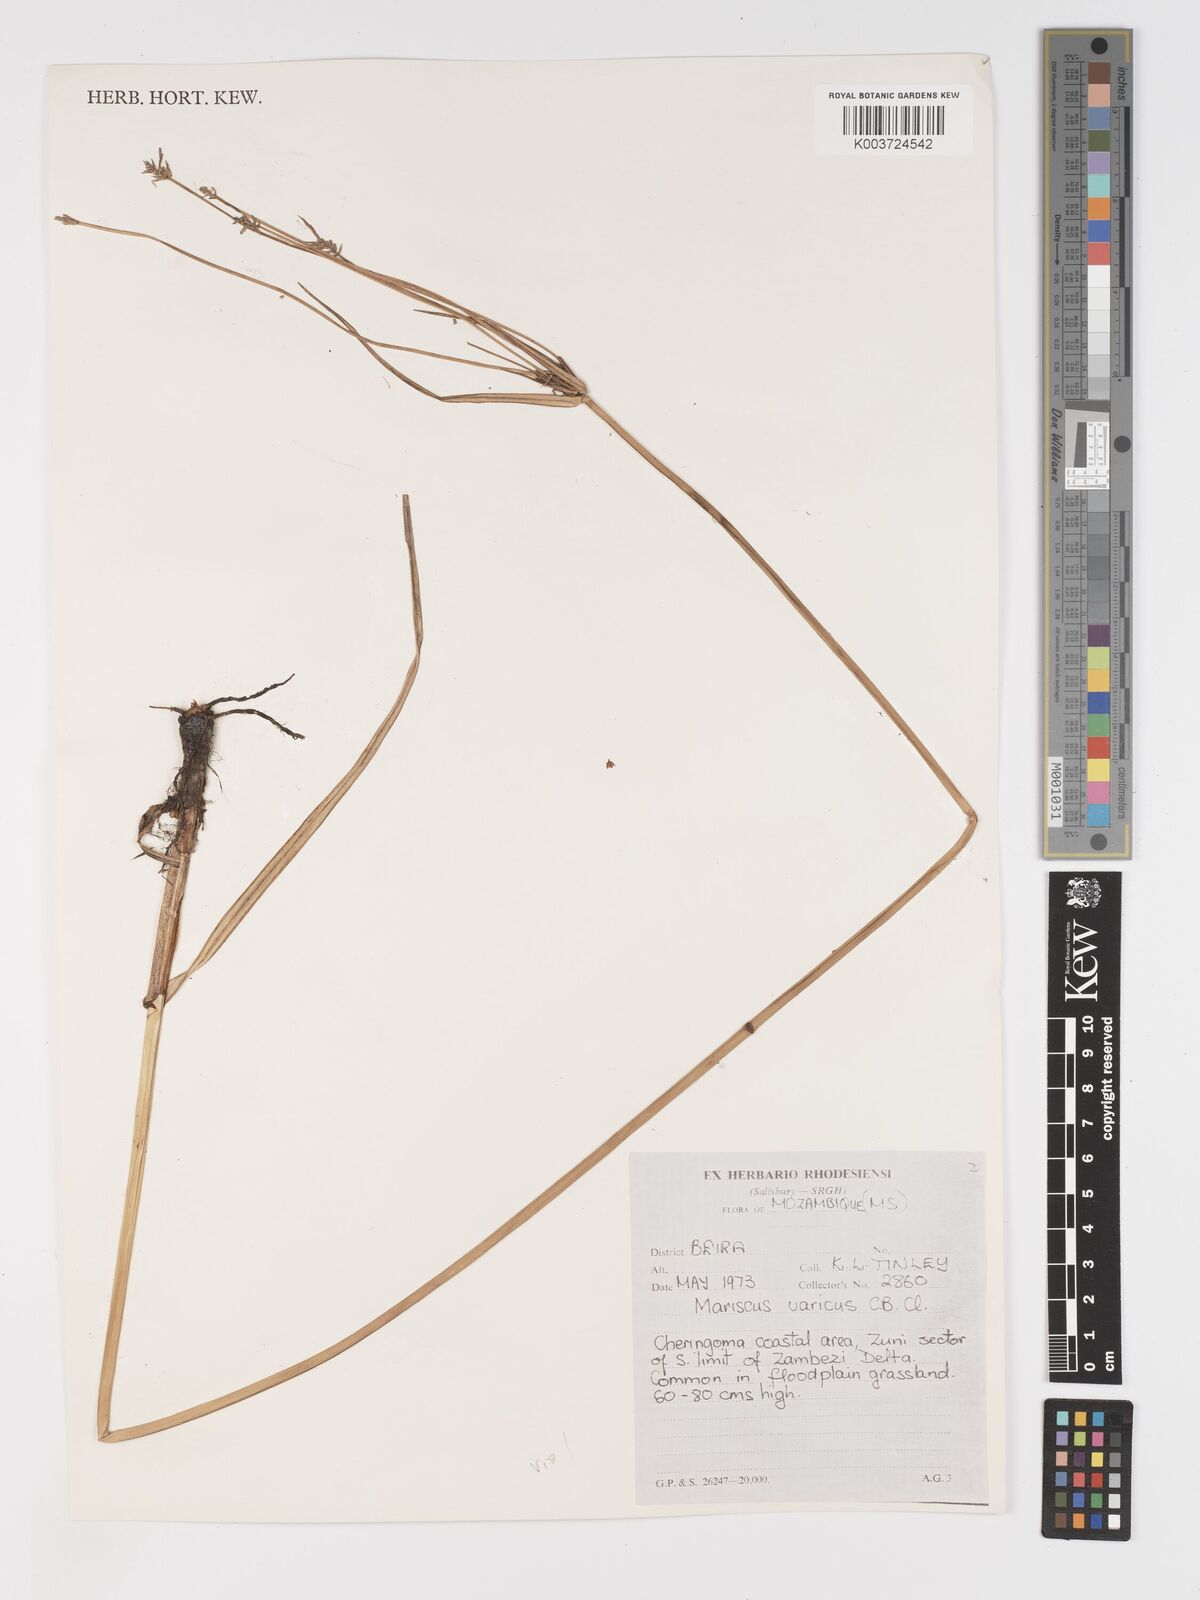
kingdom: Plantae
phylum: Tracheophyta
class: Liliopsida
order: Poales
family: Cyperaceae
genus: Cyperus
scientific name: Cyperus varicus
